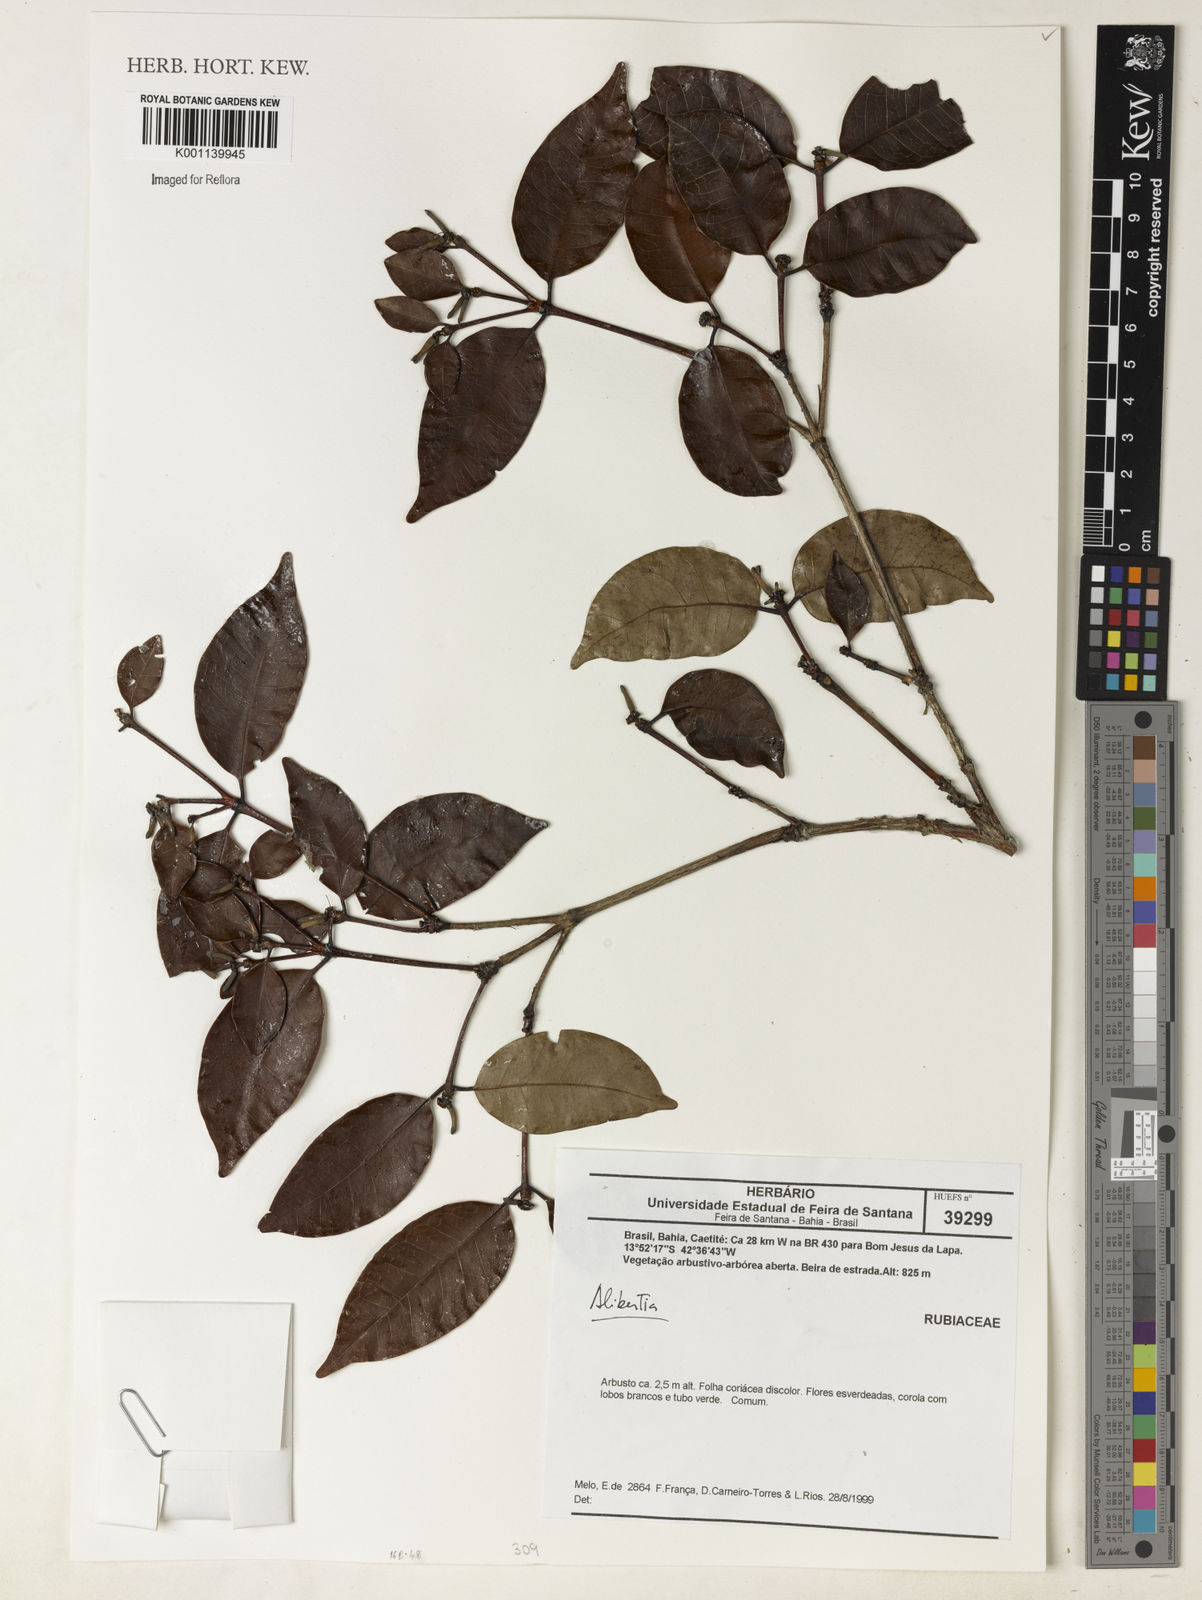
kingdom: Plantae
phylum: Tracheophyta
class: Magnoliopsida
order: Gentianales
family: Rubiaceae
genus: Alibertia
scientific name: Alibertia
